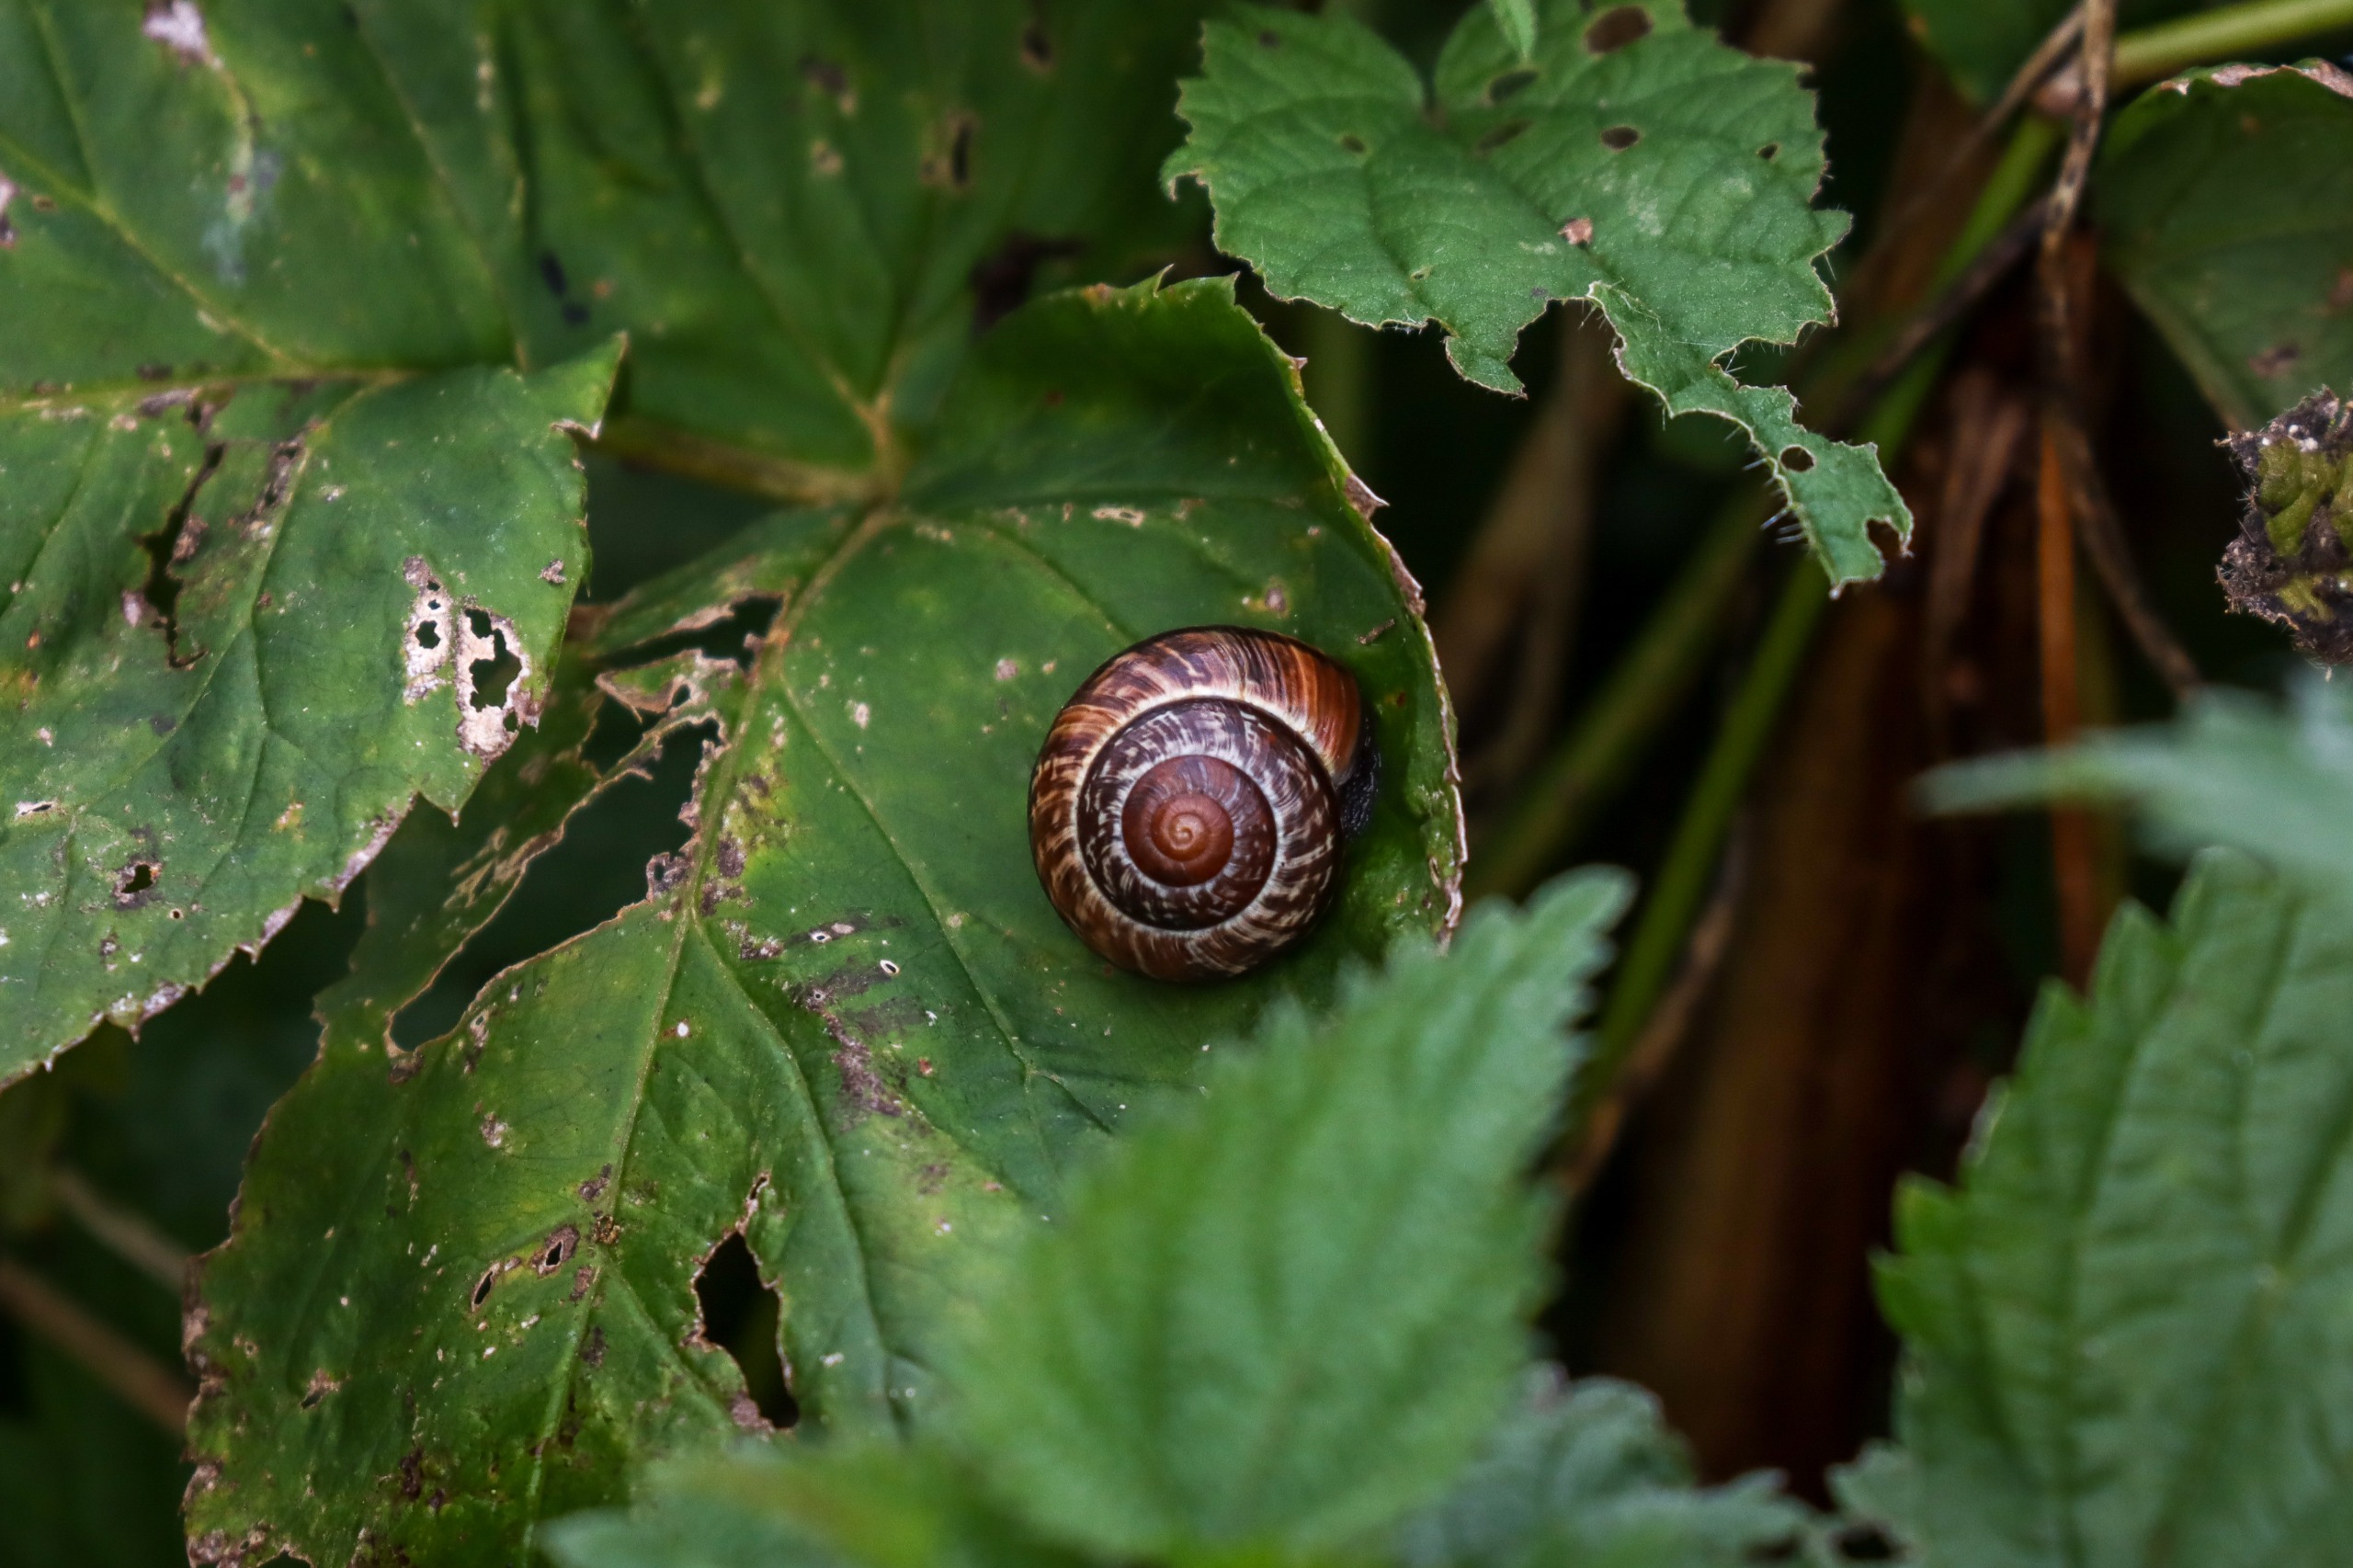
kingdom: Animalia
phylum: Mollusca
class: Gastropoda
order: Stylommatophora
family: Helicidae
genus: Arianta
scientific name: Arianta arbustorum
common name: Kratsnegl
